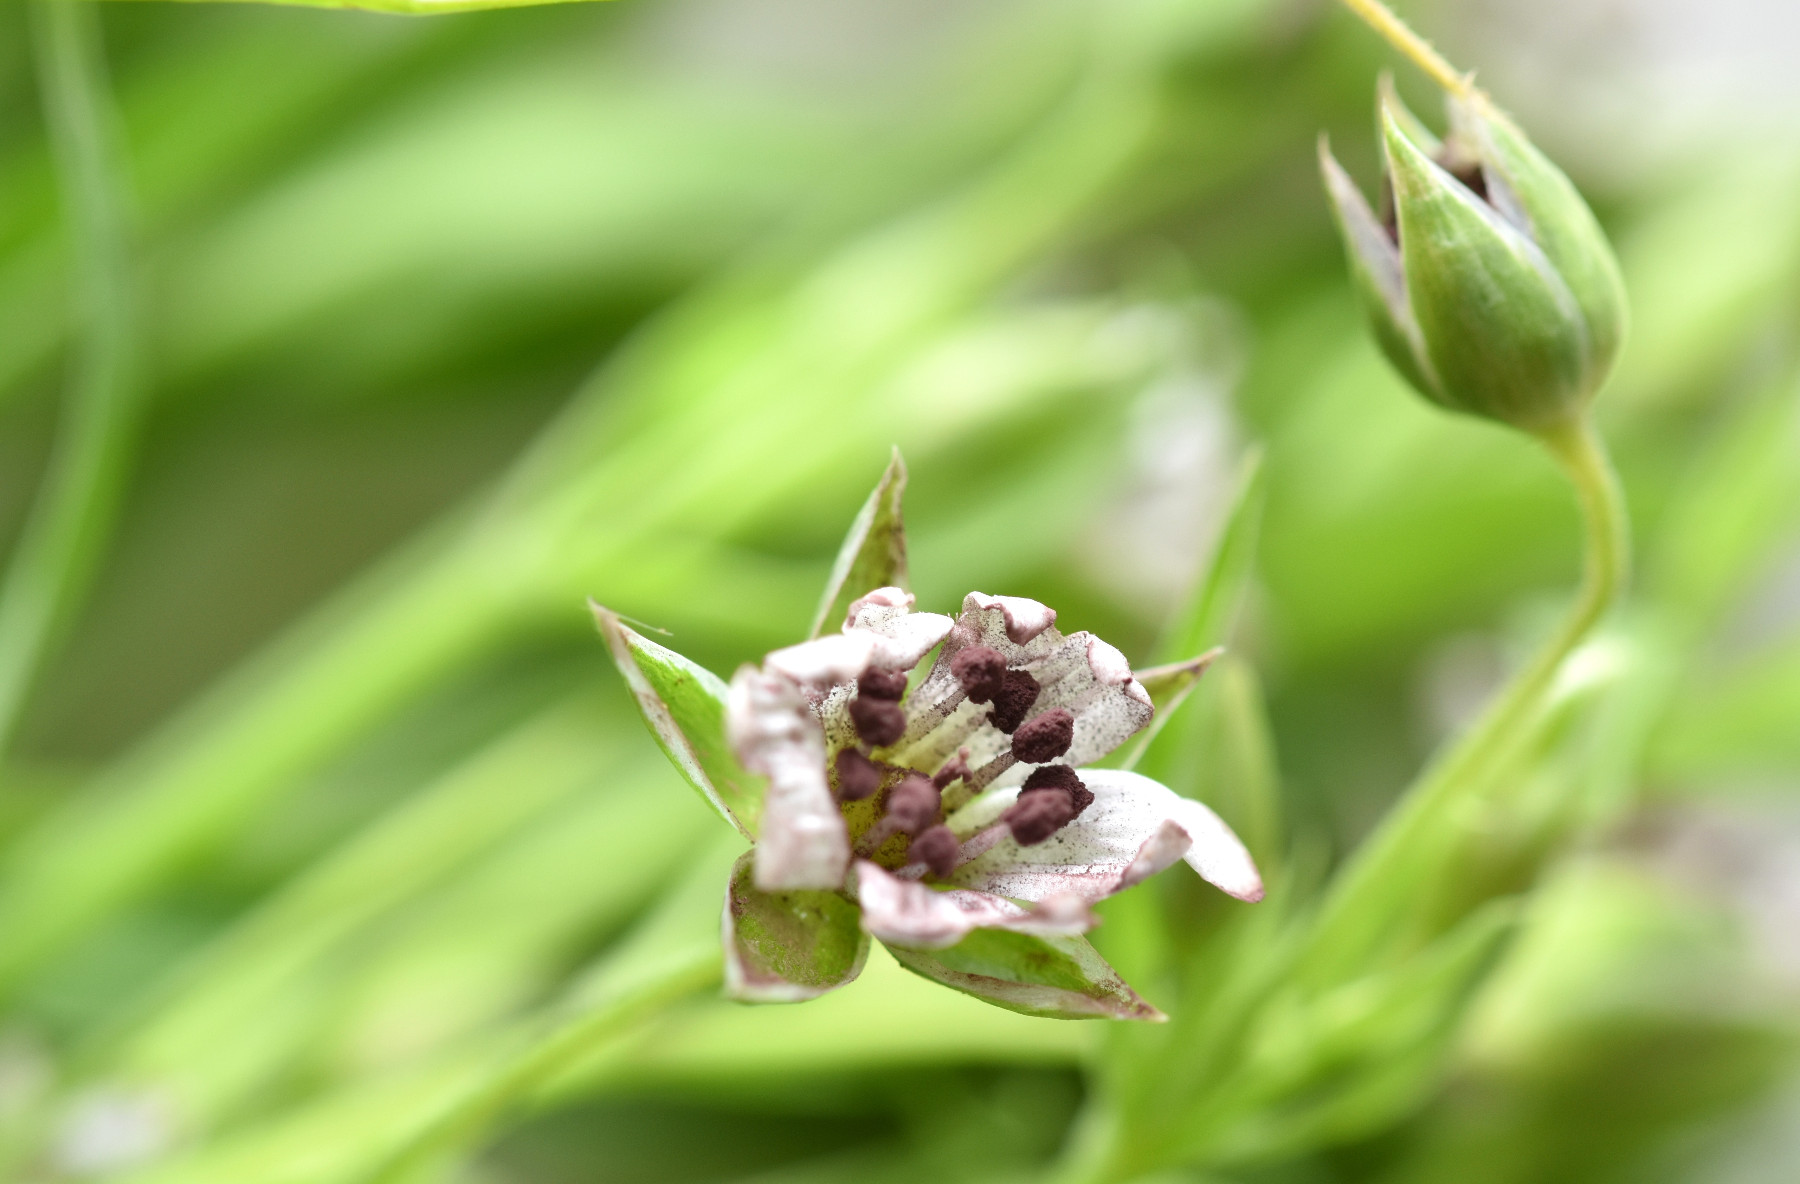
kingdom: Fungi
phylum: Basidiomycota
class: Microbotryomycetes
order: Microbotryales
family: Microbotryaceae
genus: Microbotryum
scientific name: Microbotryum stellariae
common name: fladstjerne-støvbladrust
